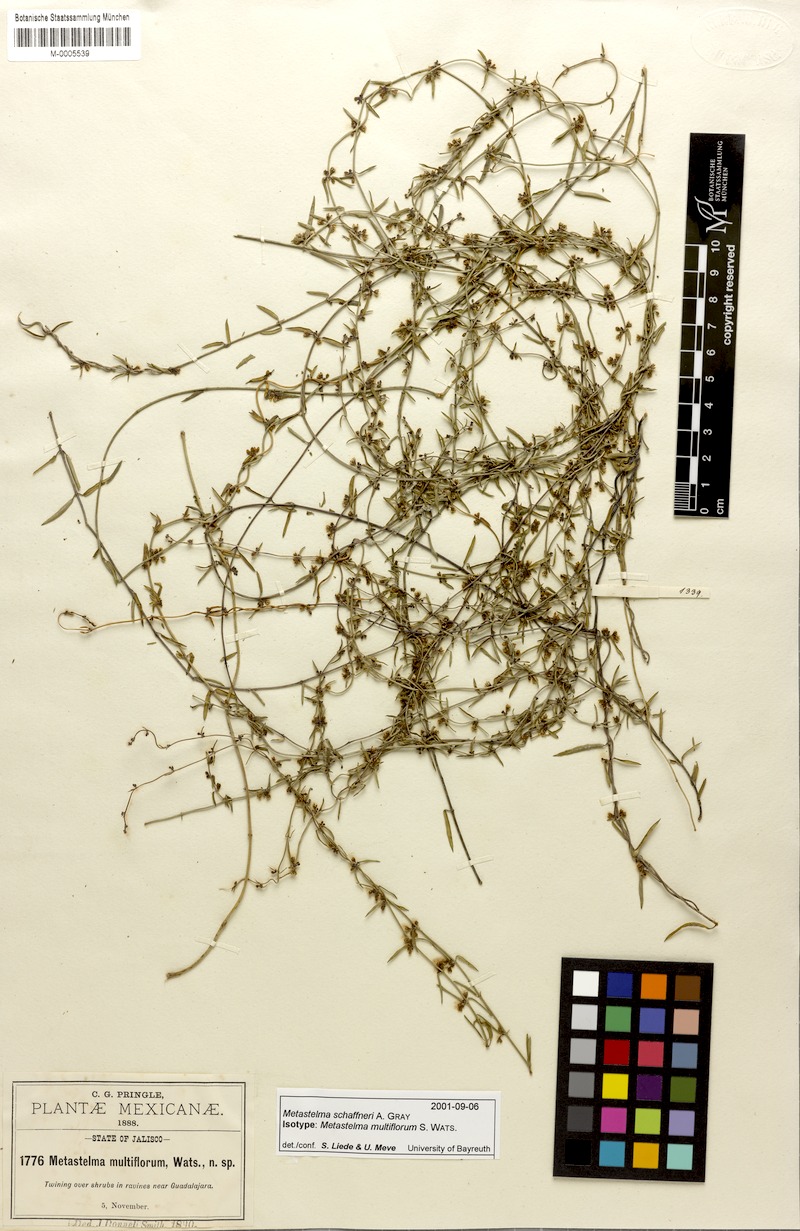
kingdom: Plantae
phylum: Tracheophyta
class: Magnoliopsida
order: Gentianales
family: Apocynaceae
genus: Metastelma
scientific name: Metastelma schaffneri
